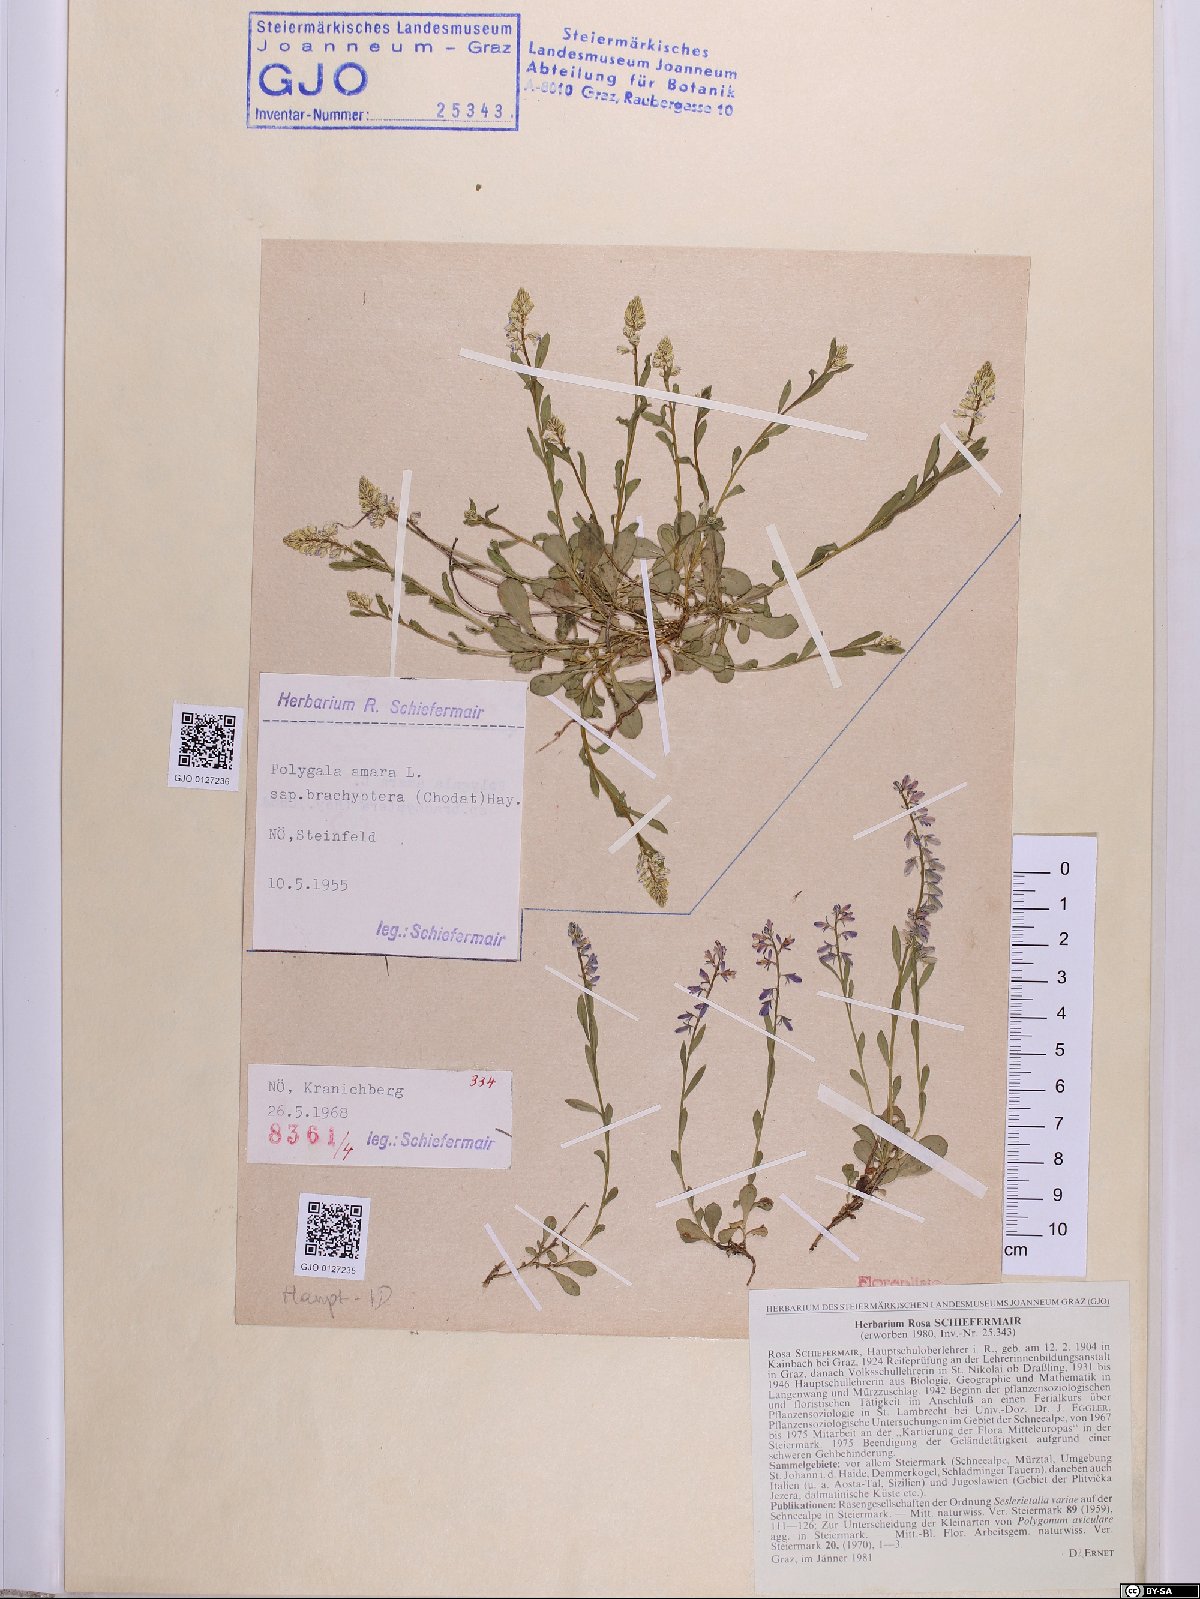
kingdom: Plantae
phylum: Tracheophyta
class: Magnoliopsida
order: Fabales
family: Polygalaceae
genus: Polygala
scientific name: Polygala amara
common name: Milkwort
